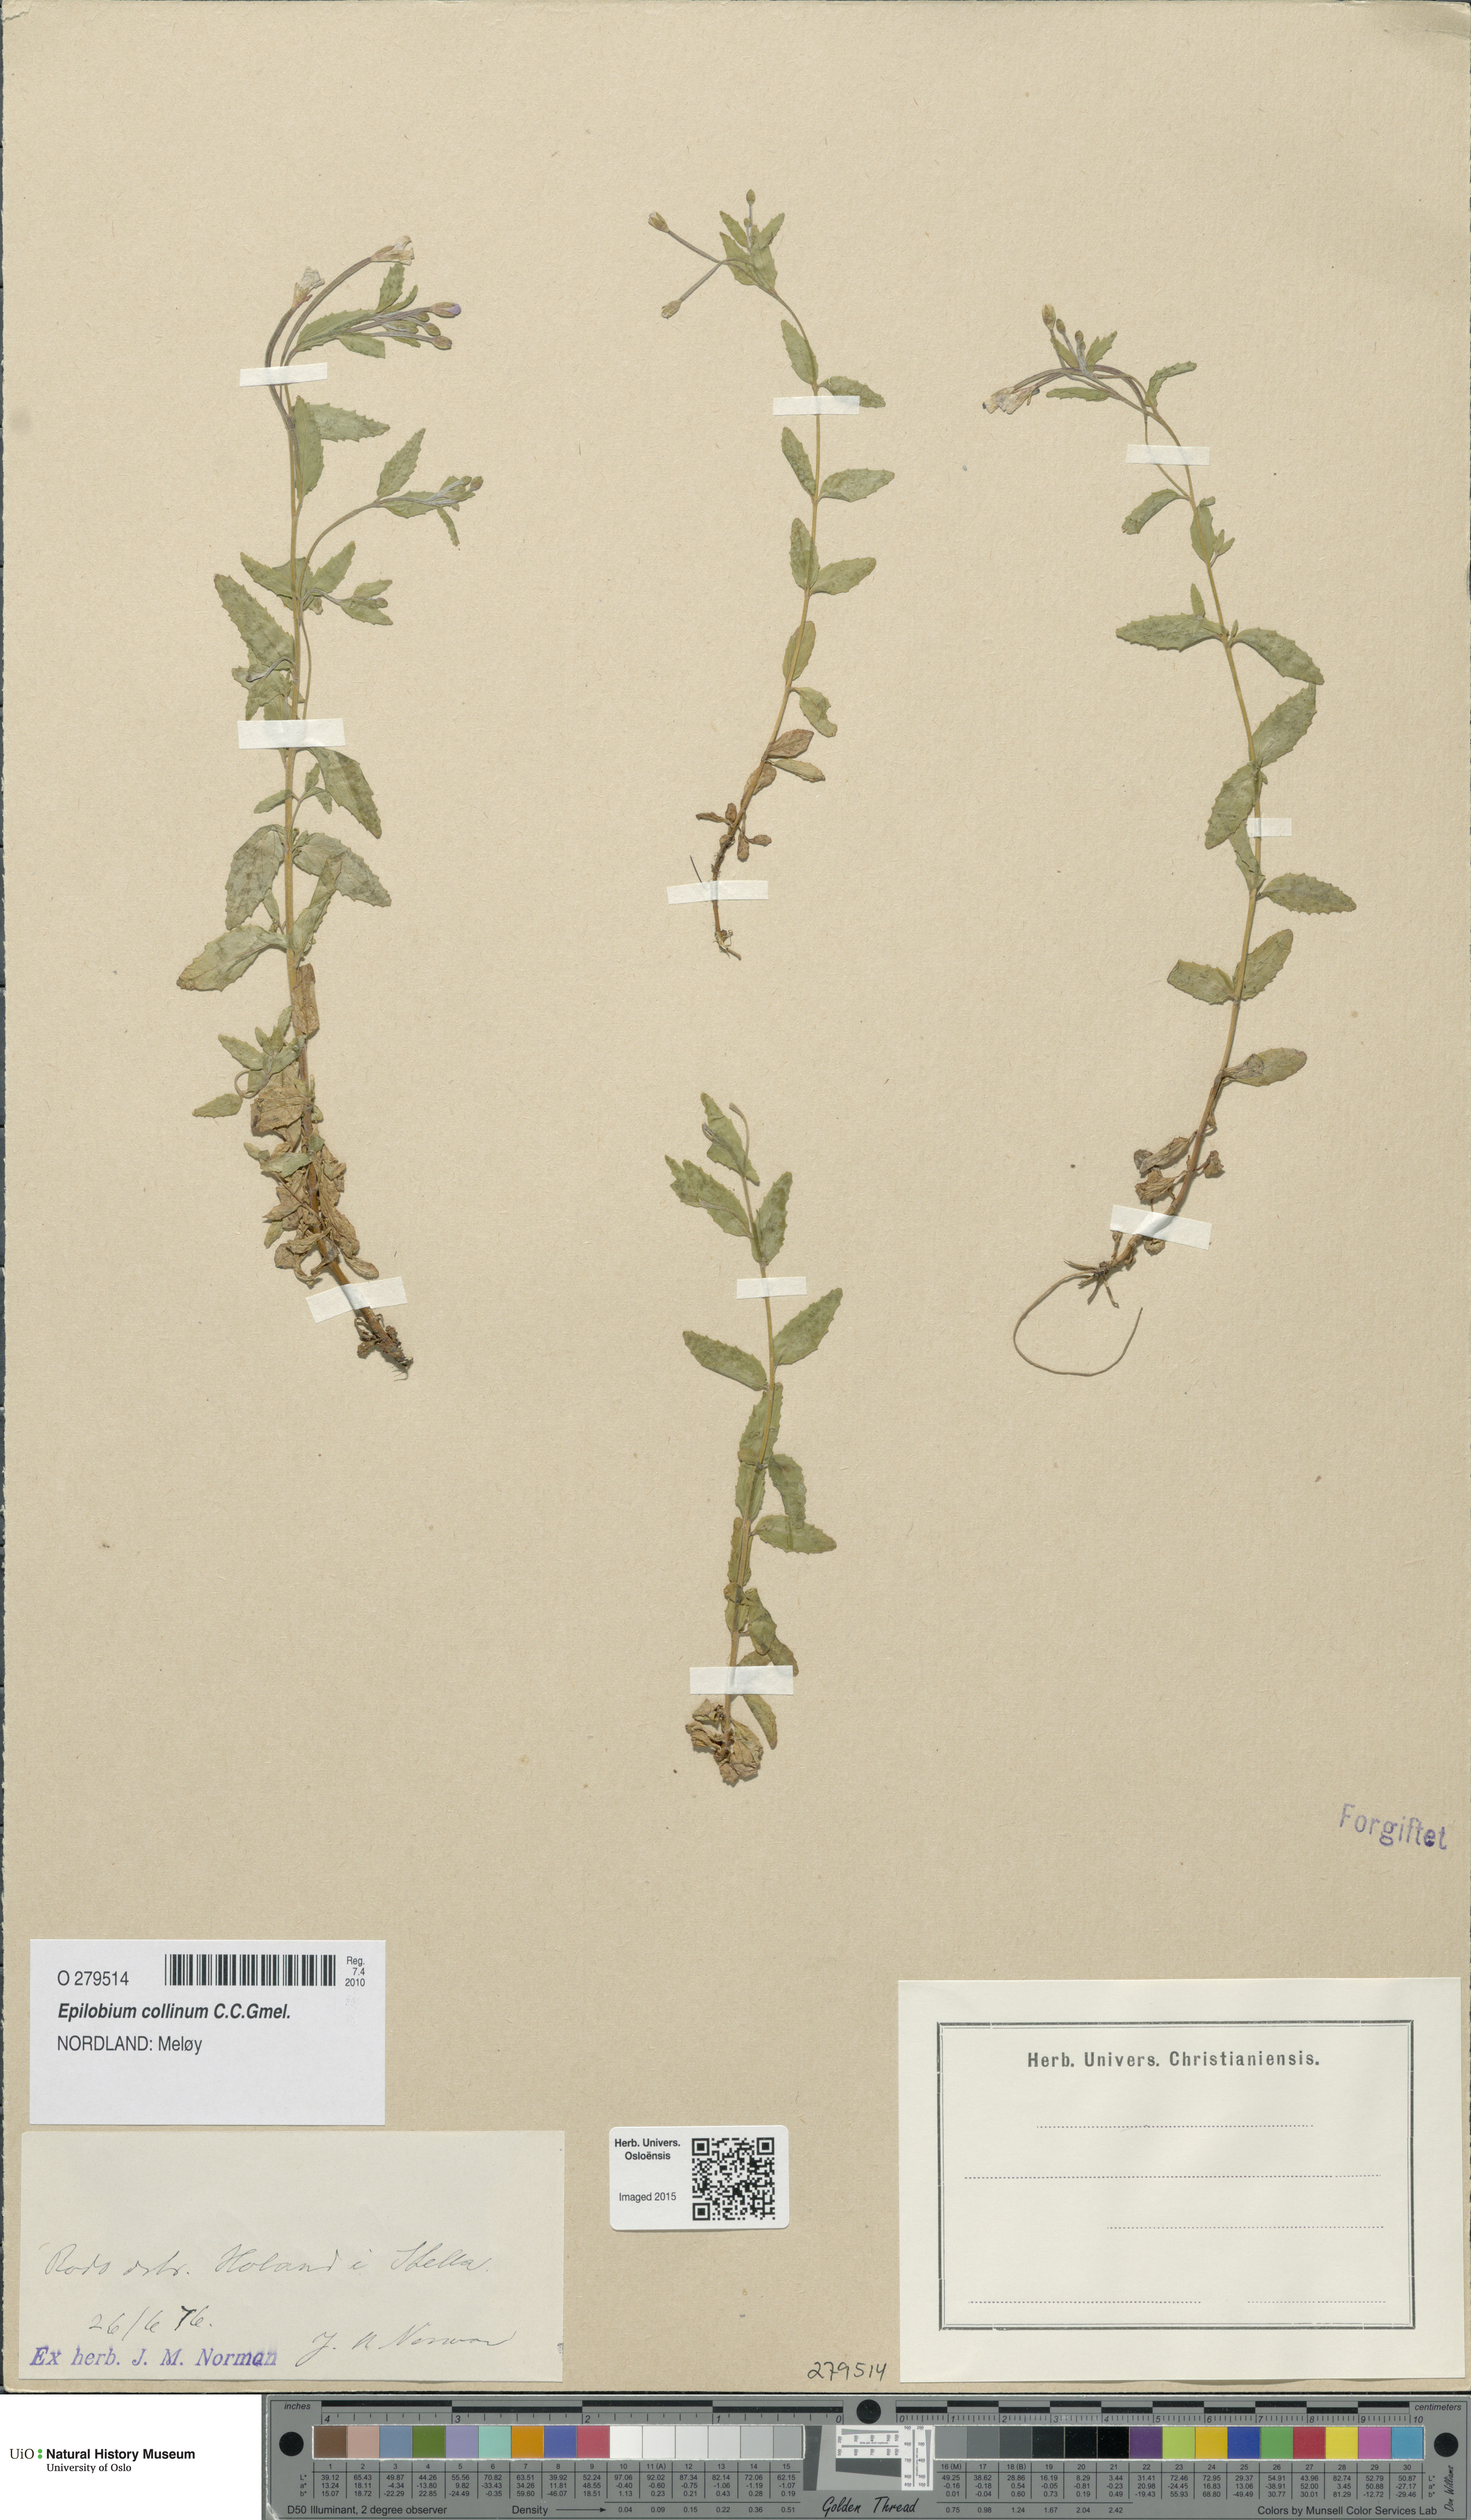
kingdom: Plantae
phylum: Tracheophyta
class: Magnoliopsida
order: Myrtales
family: Onagraceae
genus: Epilobium
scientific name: Epilobium collinum
